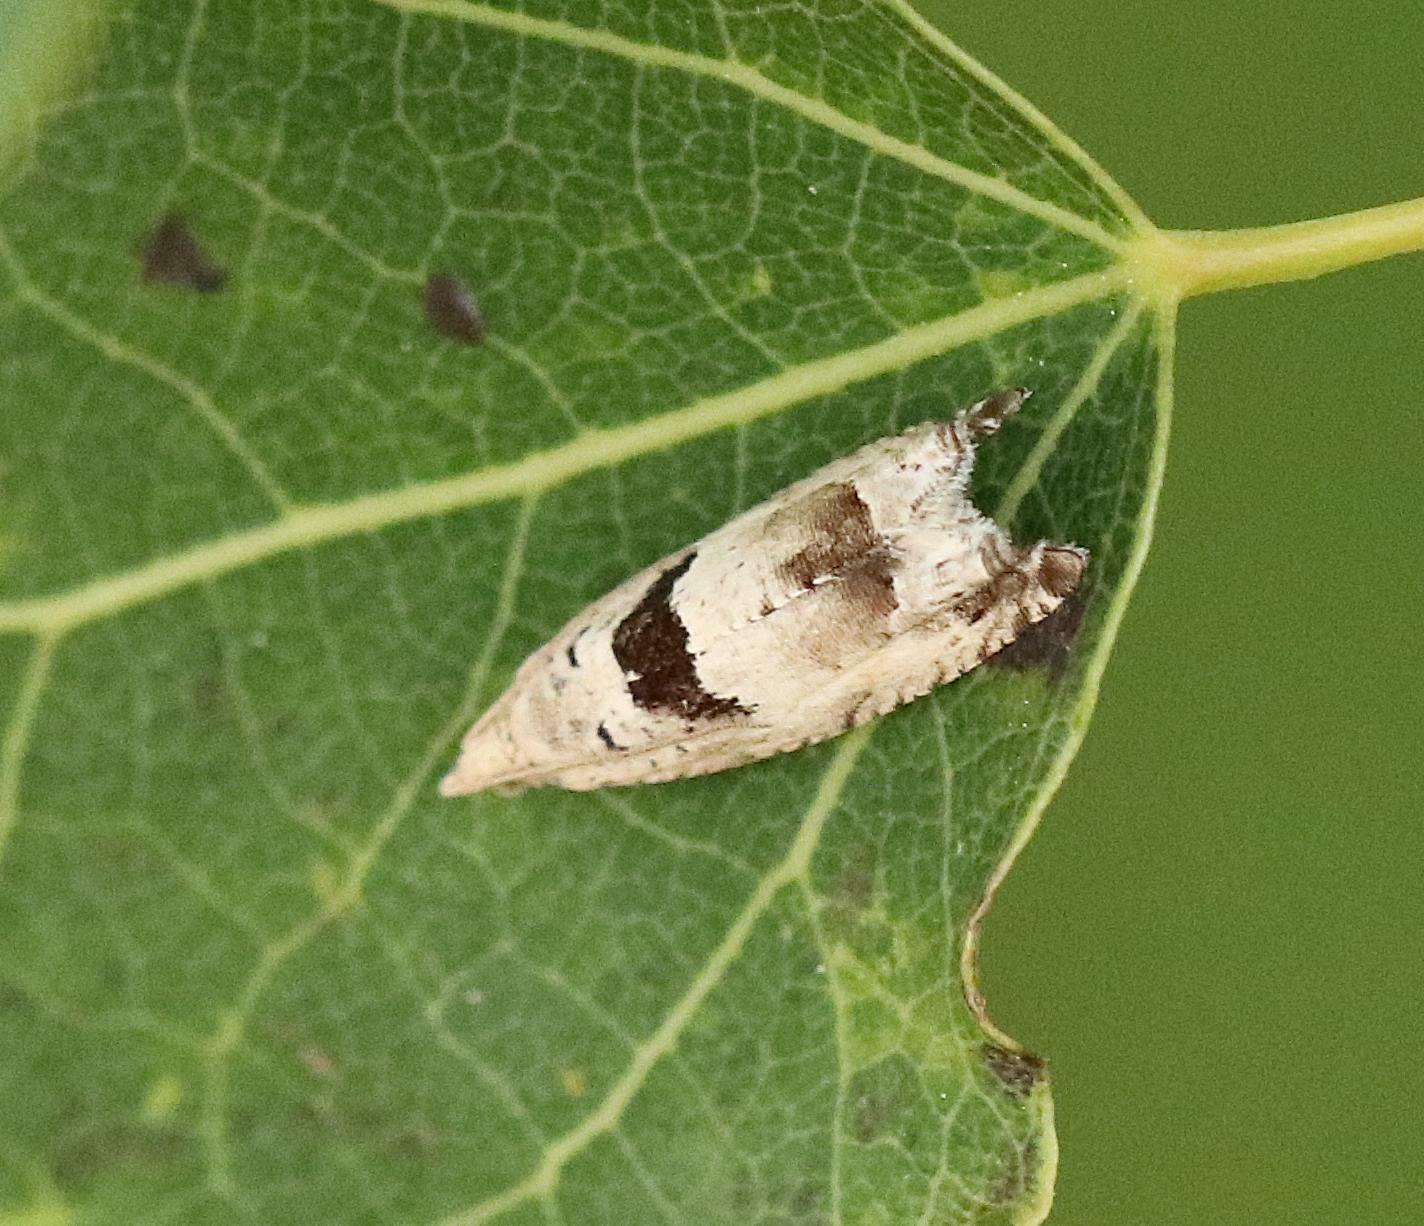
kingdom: Animalia
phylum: Arthropoda
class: Insecta
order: Lepidoptera
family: Tortricidae
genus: Epinotia
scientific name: Epinotia ramella
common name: Birkerullevikler
